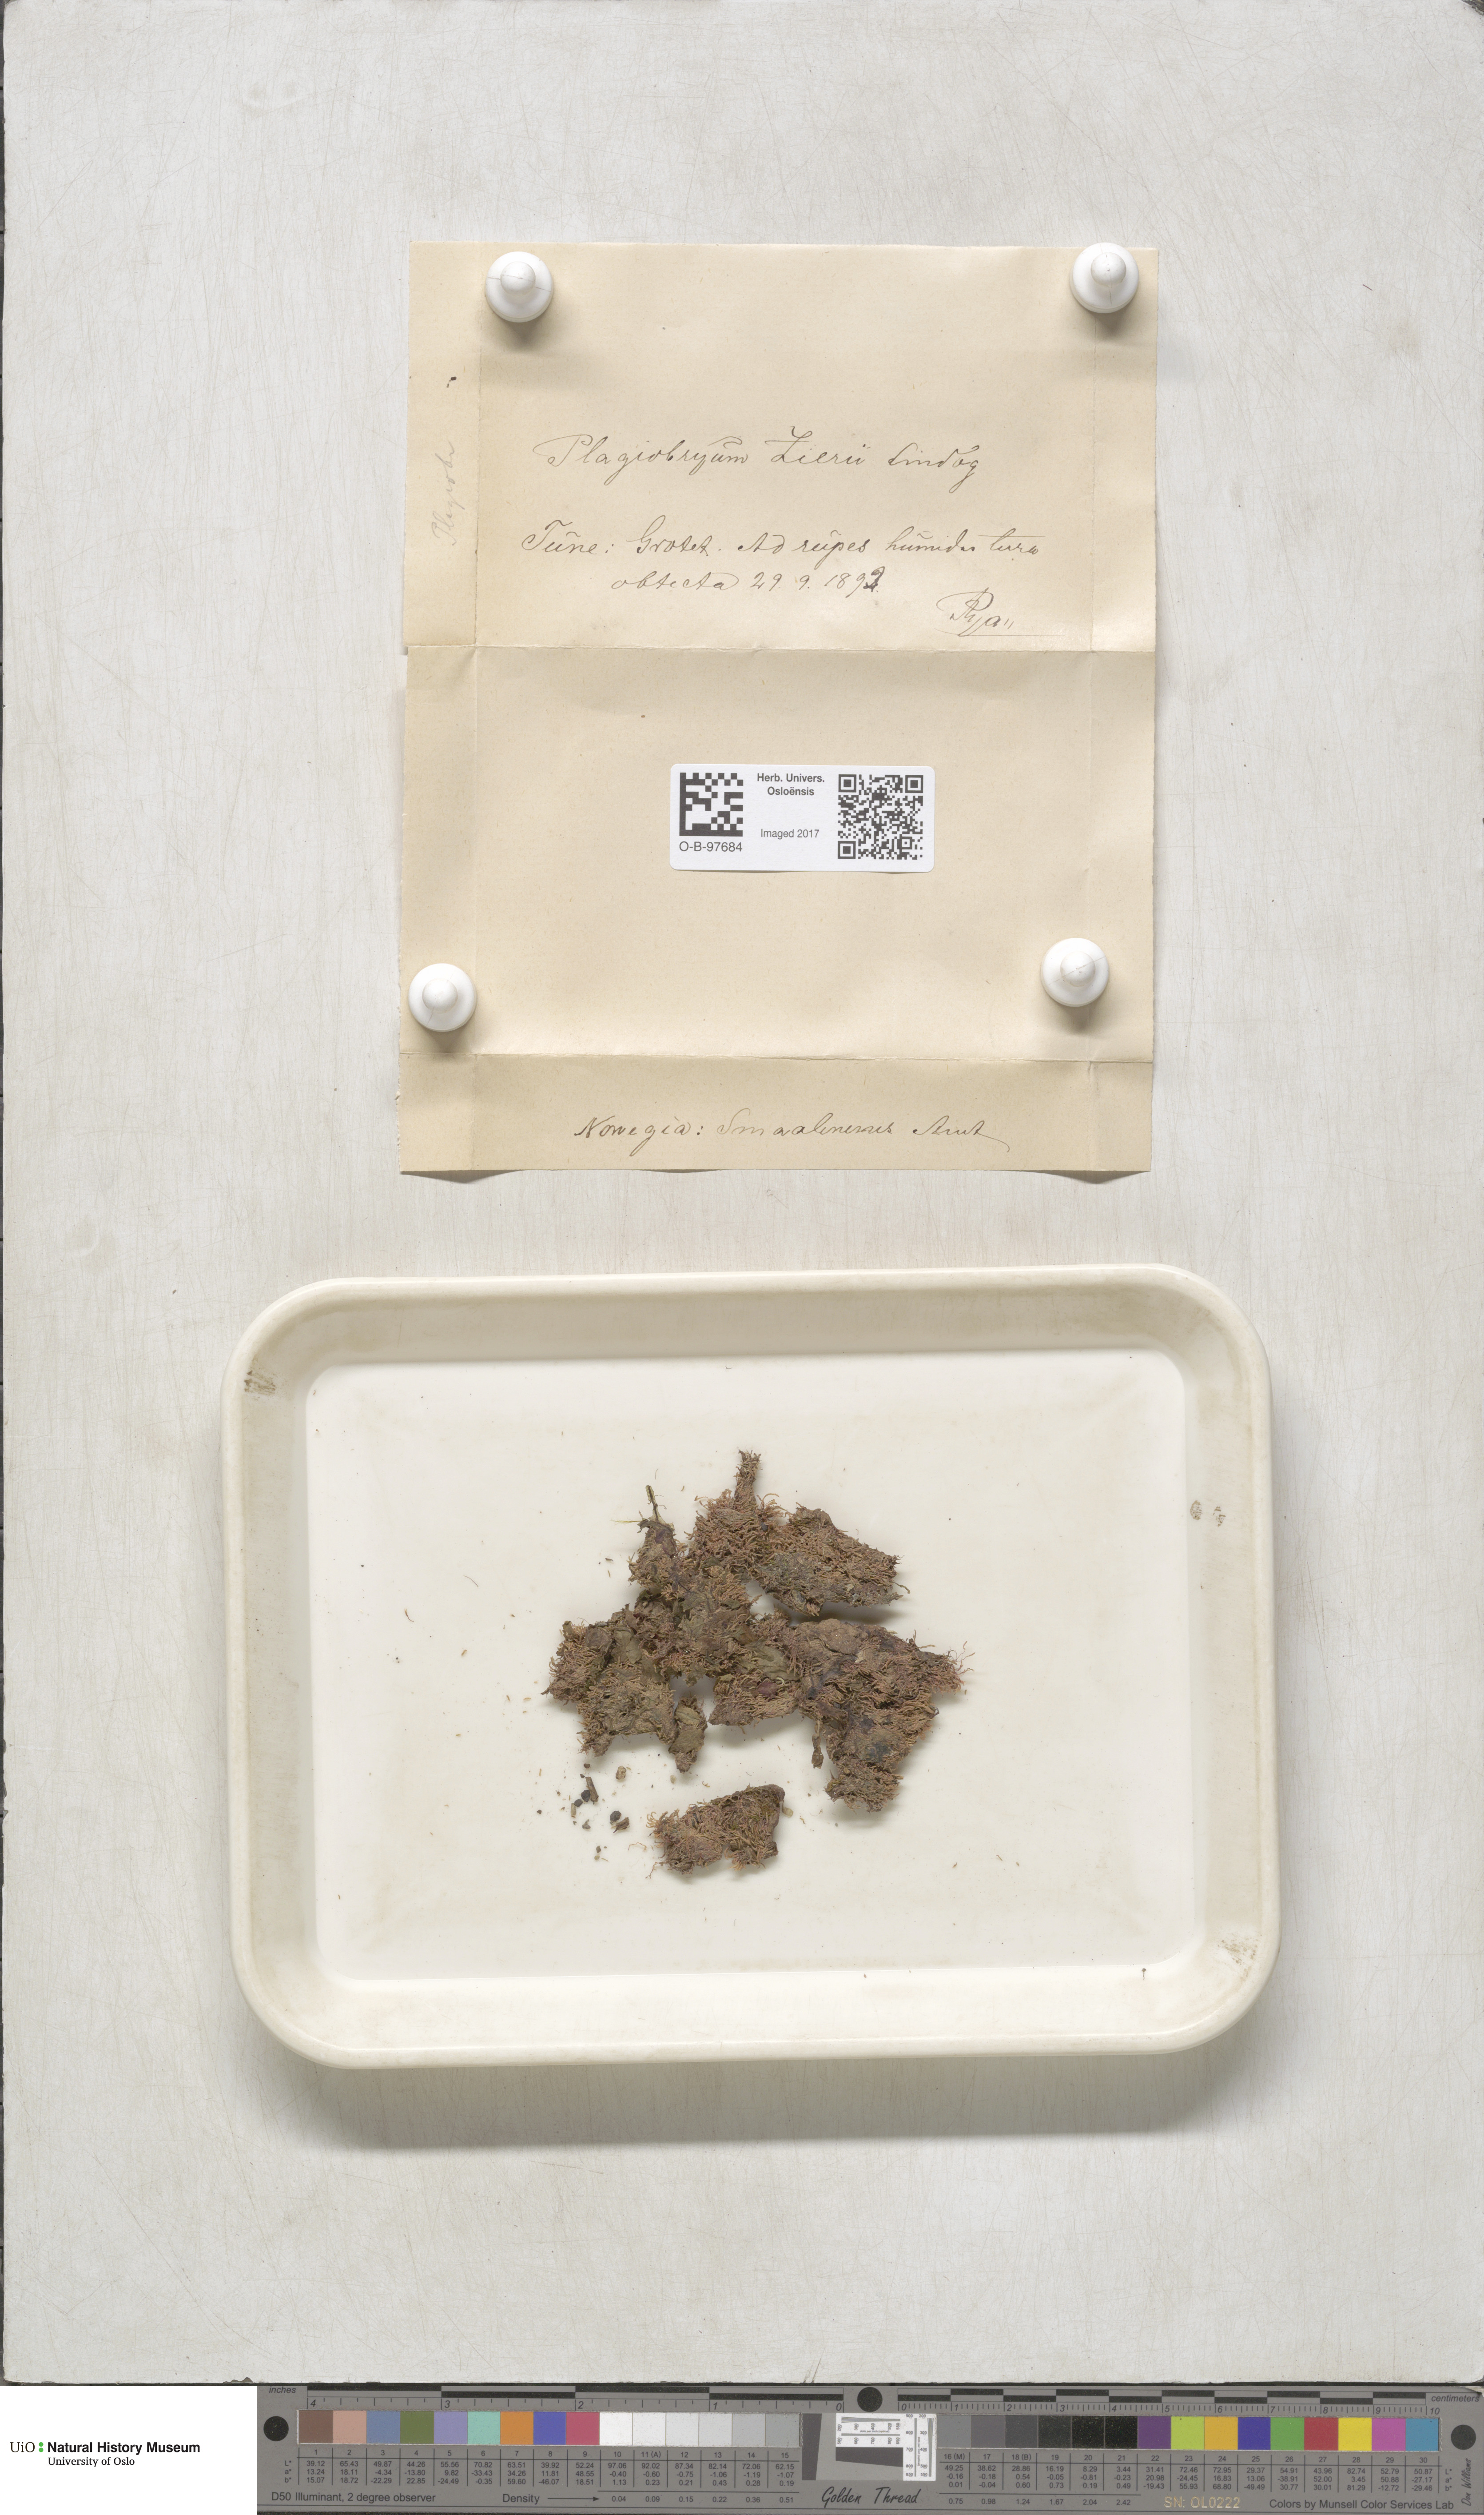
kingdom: Plantae
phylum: Bryophyta
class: Bryopsida
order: Bryales
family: Bryaceae
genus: Plagiobryum
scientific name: Plagiobryum zieri
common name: Zier's hump moss
